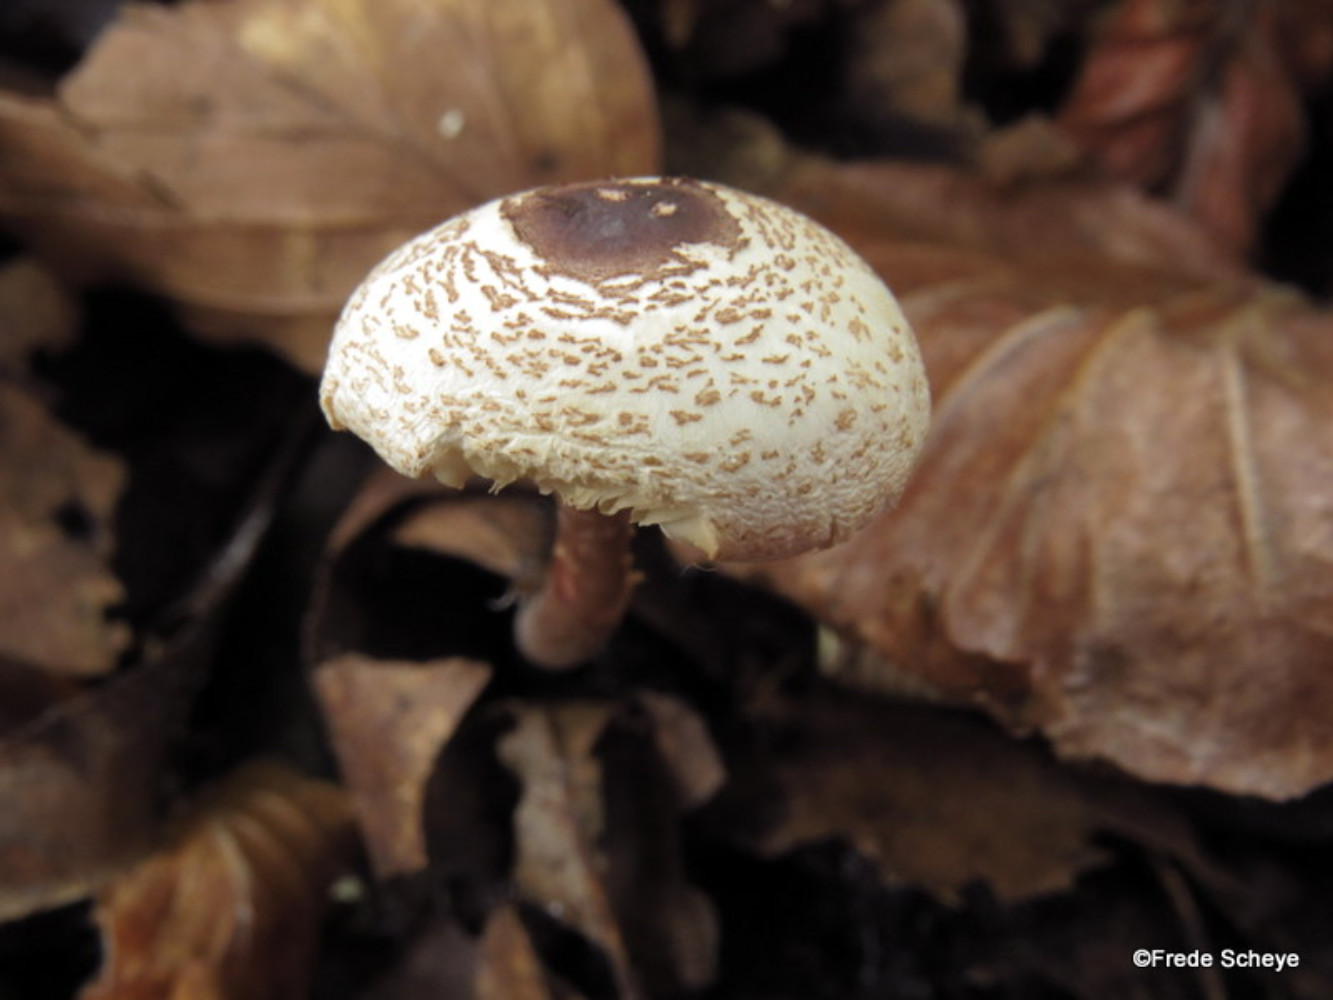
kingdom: Fungi
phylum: Basidiomycota
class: Agaricomycetes
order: Agaricales
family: Agaricaceae
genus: Lepiota
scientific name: Lepiota cristata
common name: stinkende parasolhat
